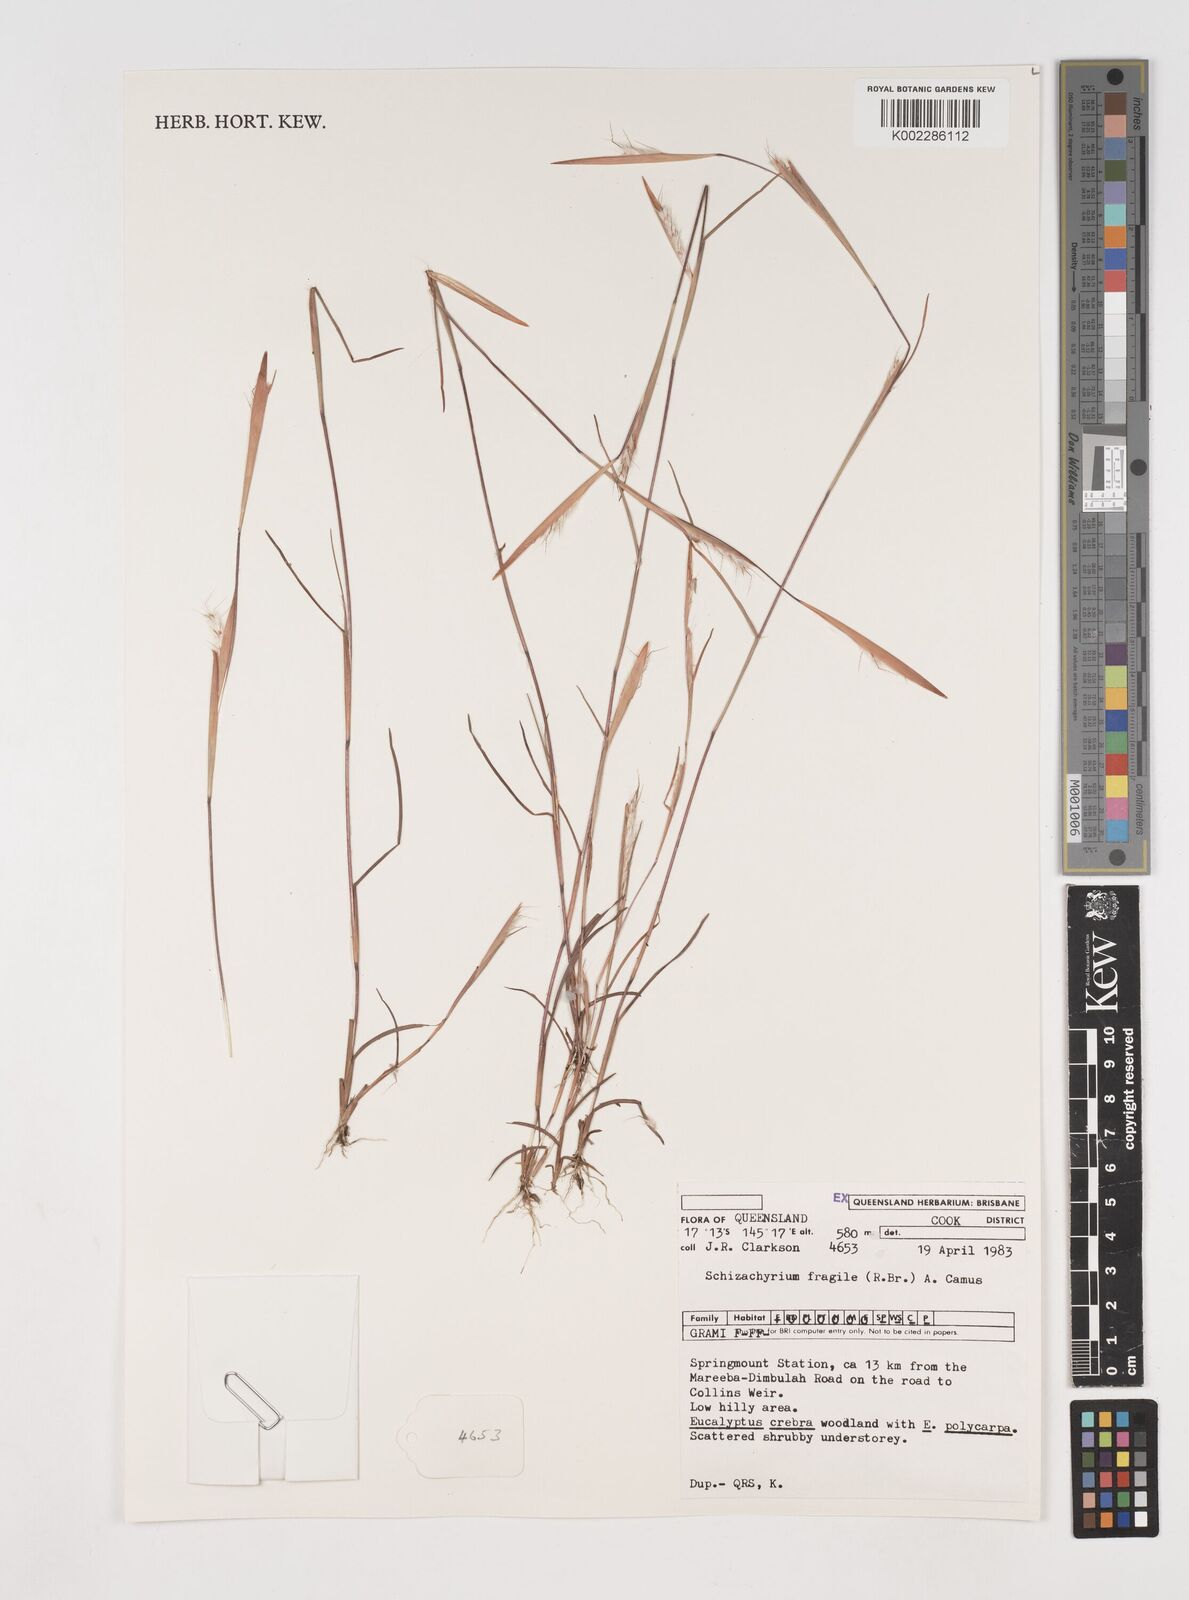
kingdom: Plantae
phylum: Tracheophyta
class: Liliopsida
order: Poales
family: Poaceae
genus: Schizachyrium
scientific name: Schizachyrium fragile
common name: Red spathe grass
